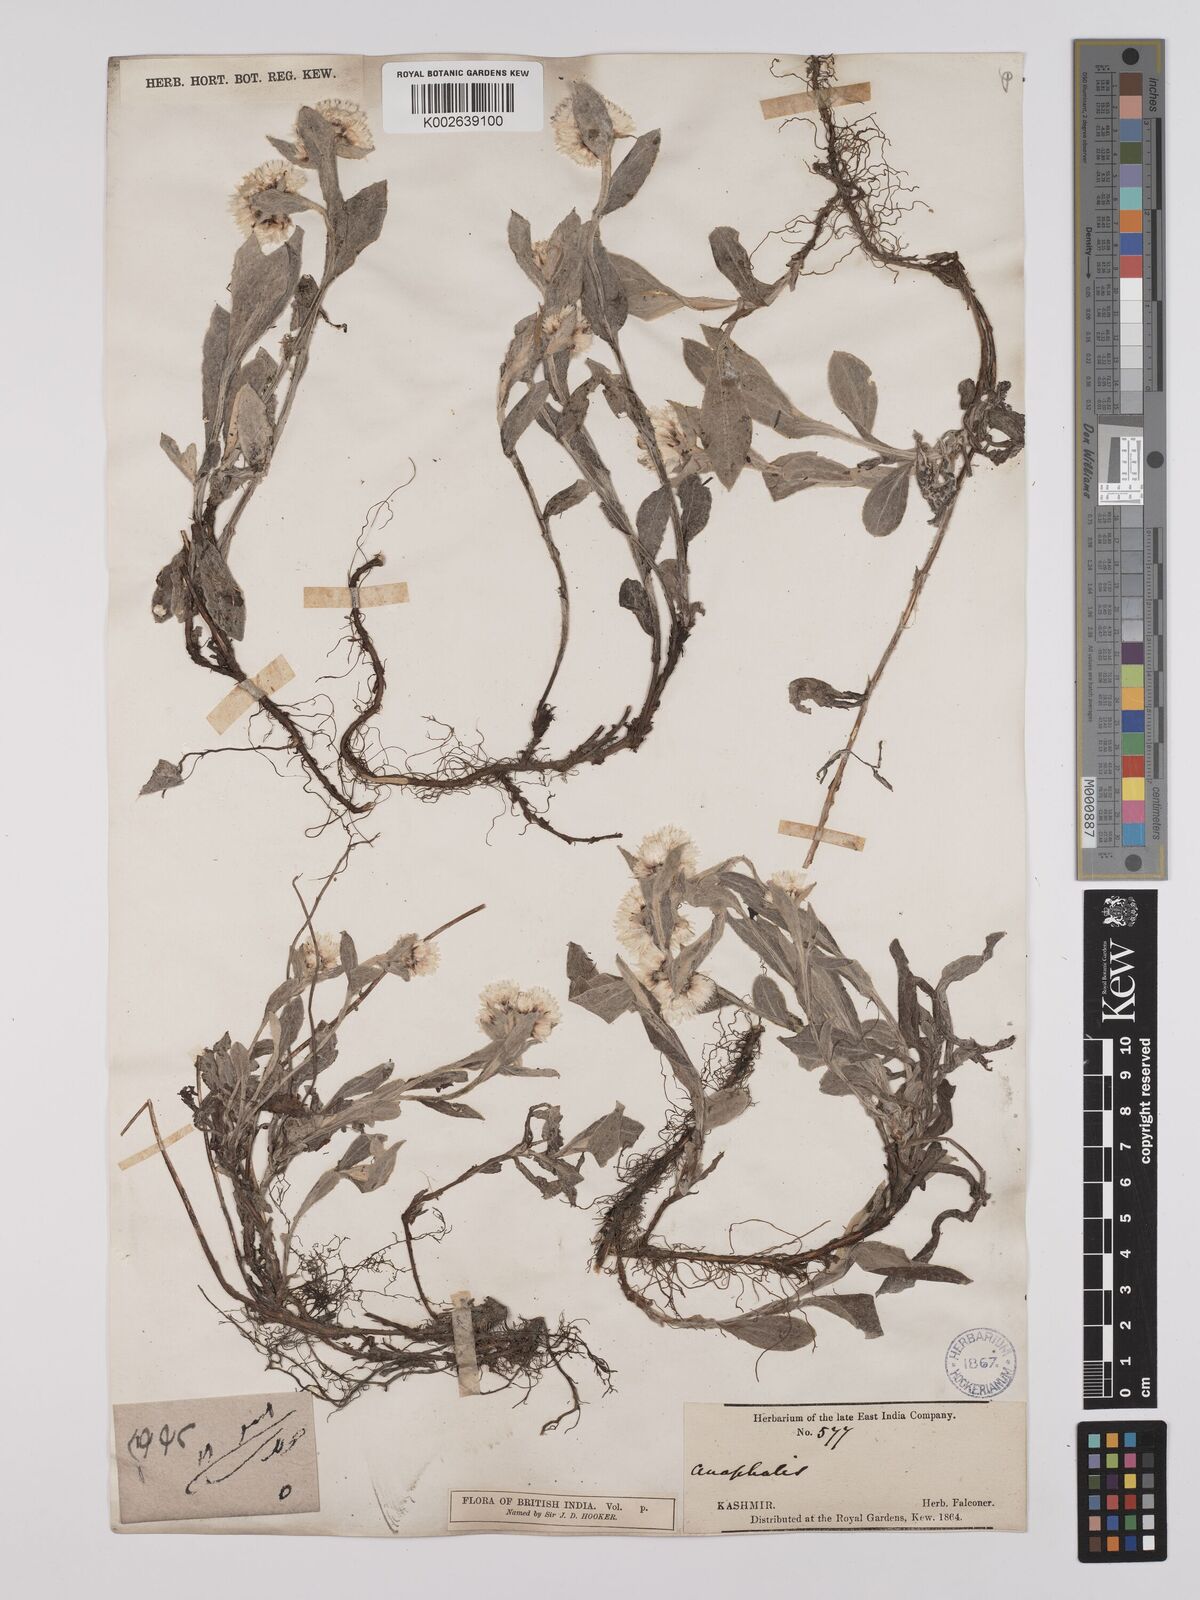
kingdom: Plantae
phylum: Tracheophyta
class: Magnoliopsida
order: Asterales
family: Asteraceae
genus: Anaphalioides
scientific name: Anaphalioides trinervis
